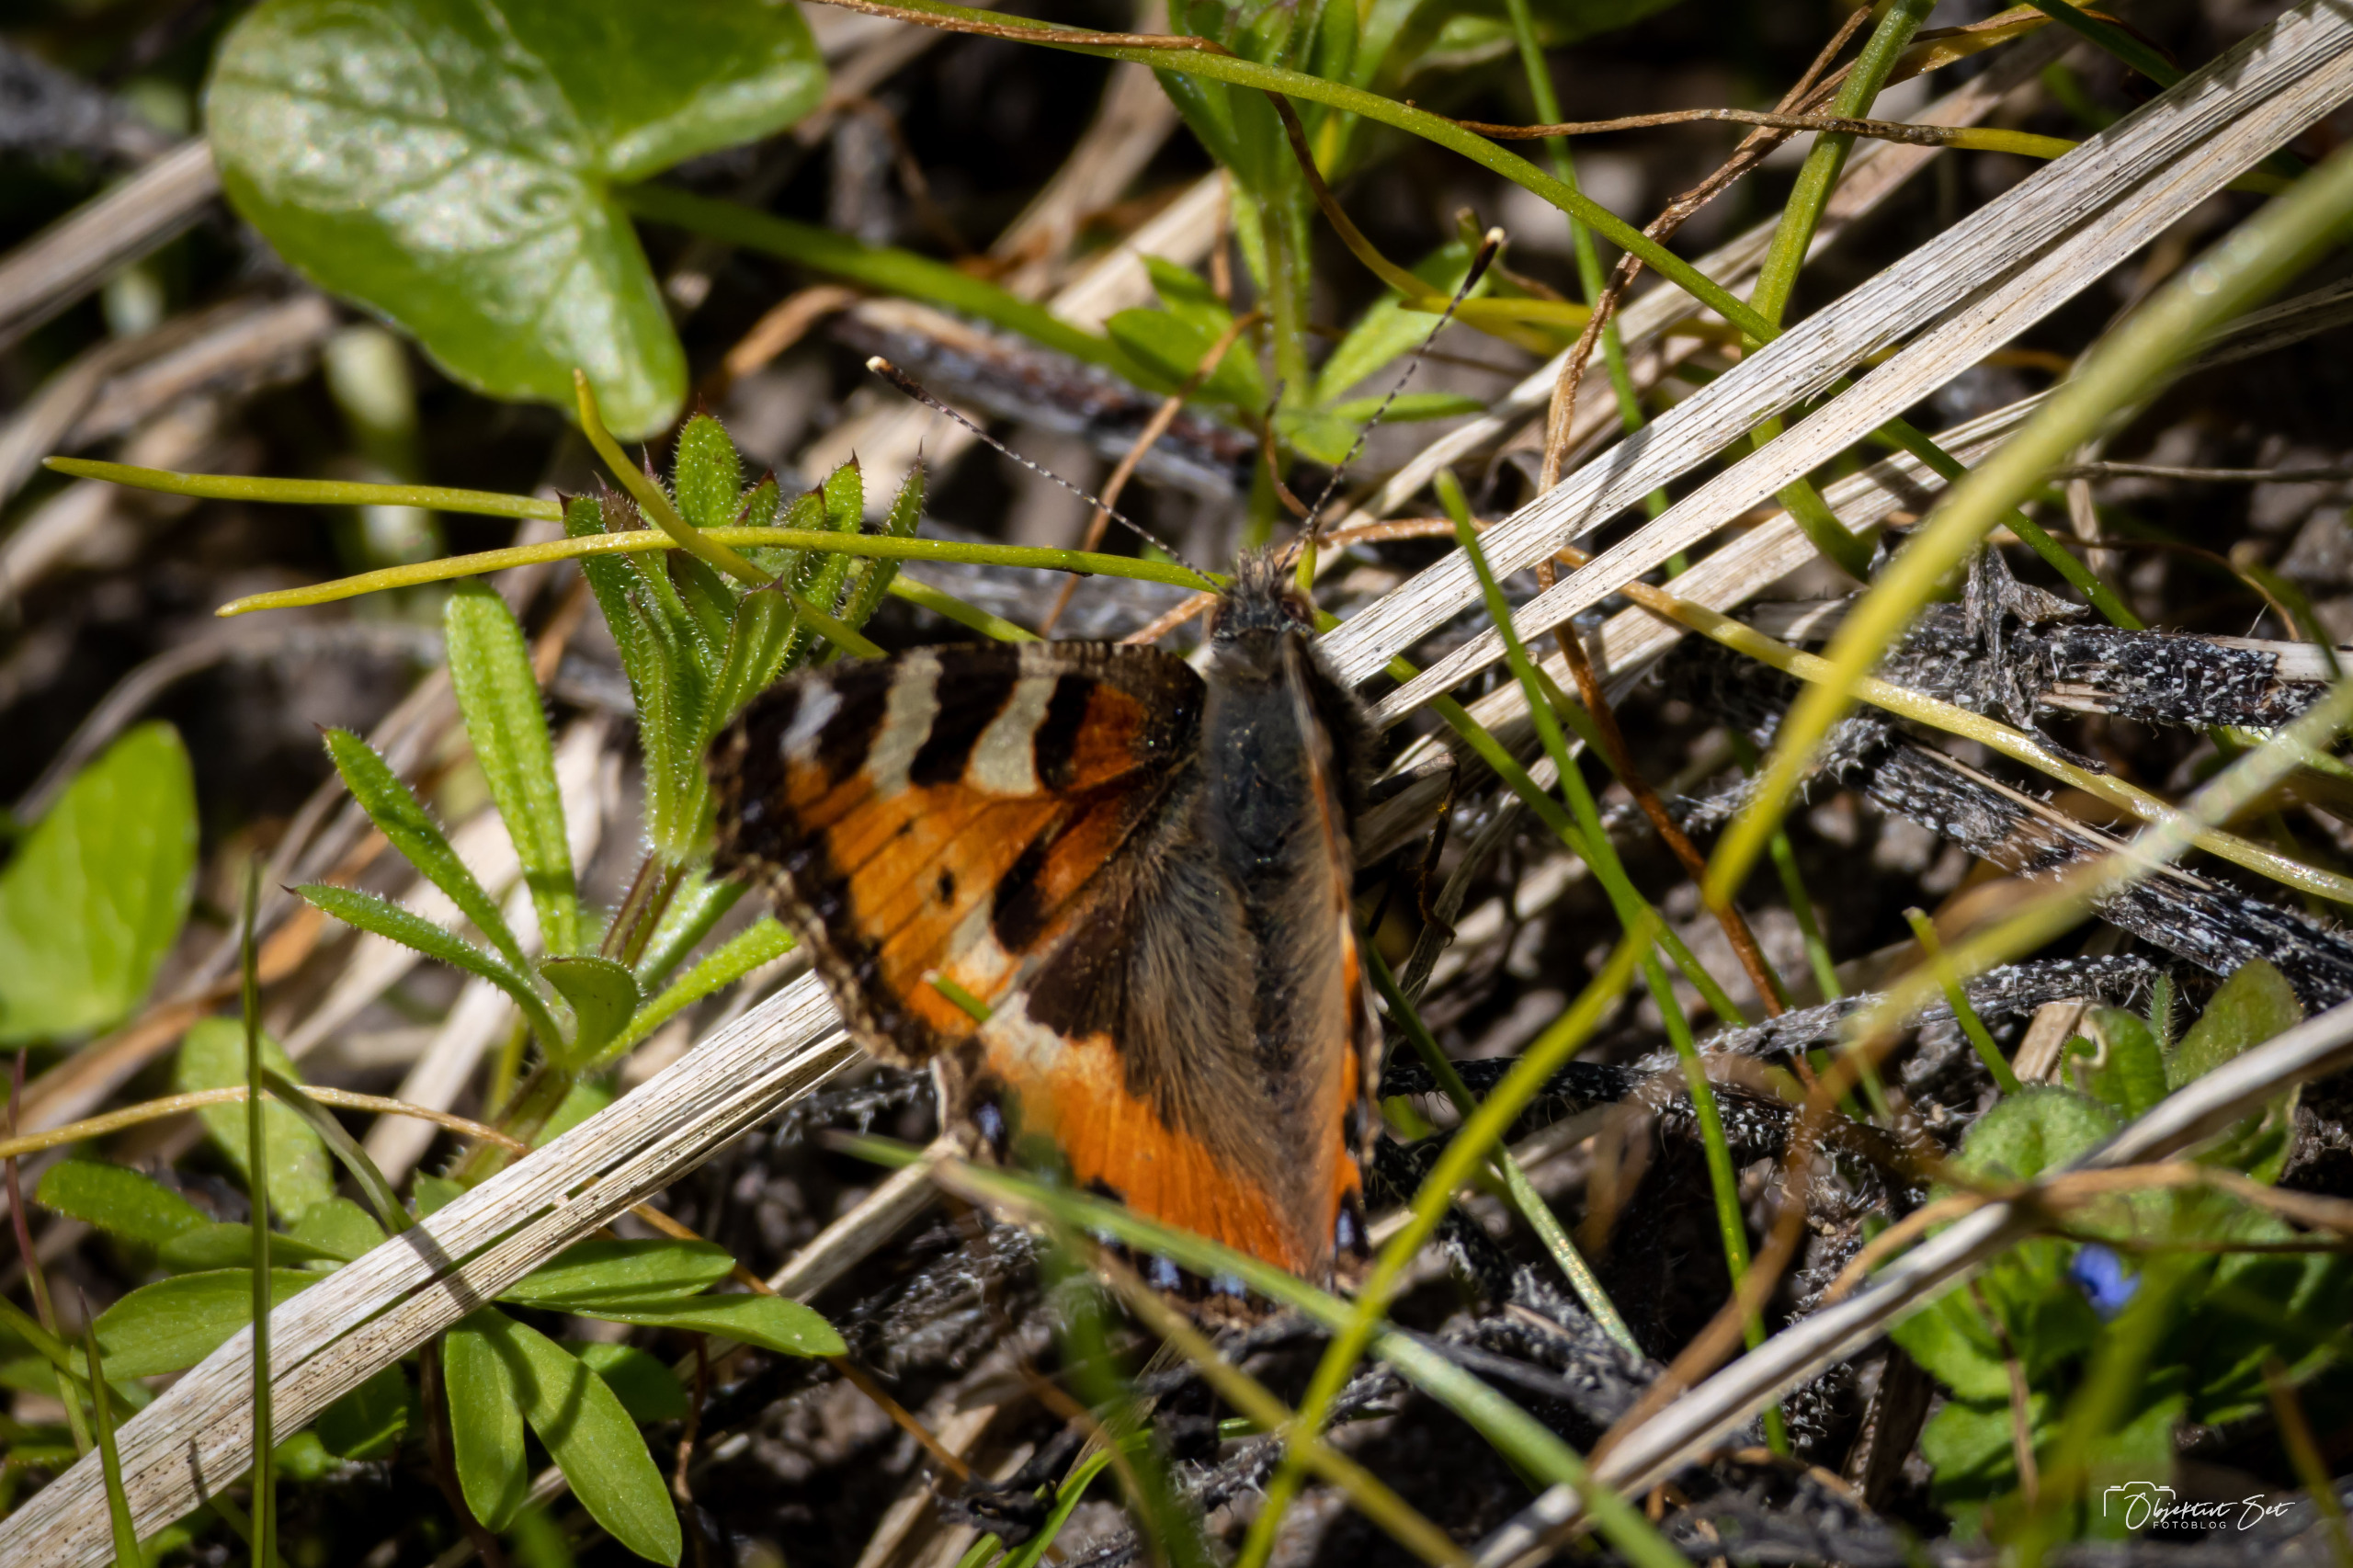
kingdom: Animalia
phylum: Arthropoda
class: Insecta
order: Lepidoptera
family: Nymphalidae
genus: Aglais
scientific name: Aglais urticae
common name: Nældens takvinge
